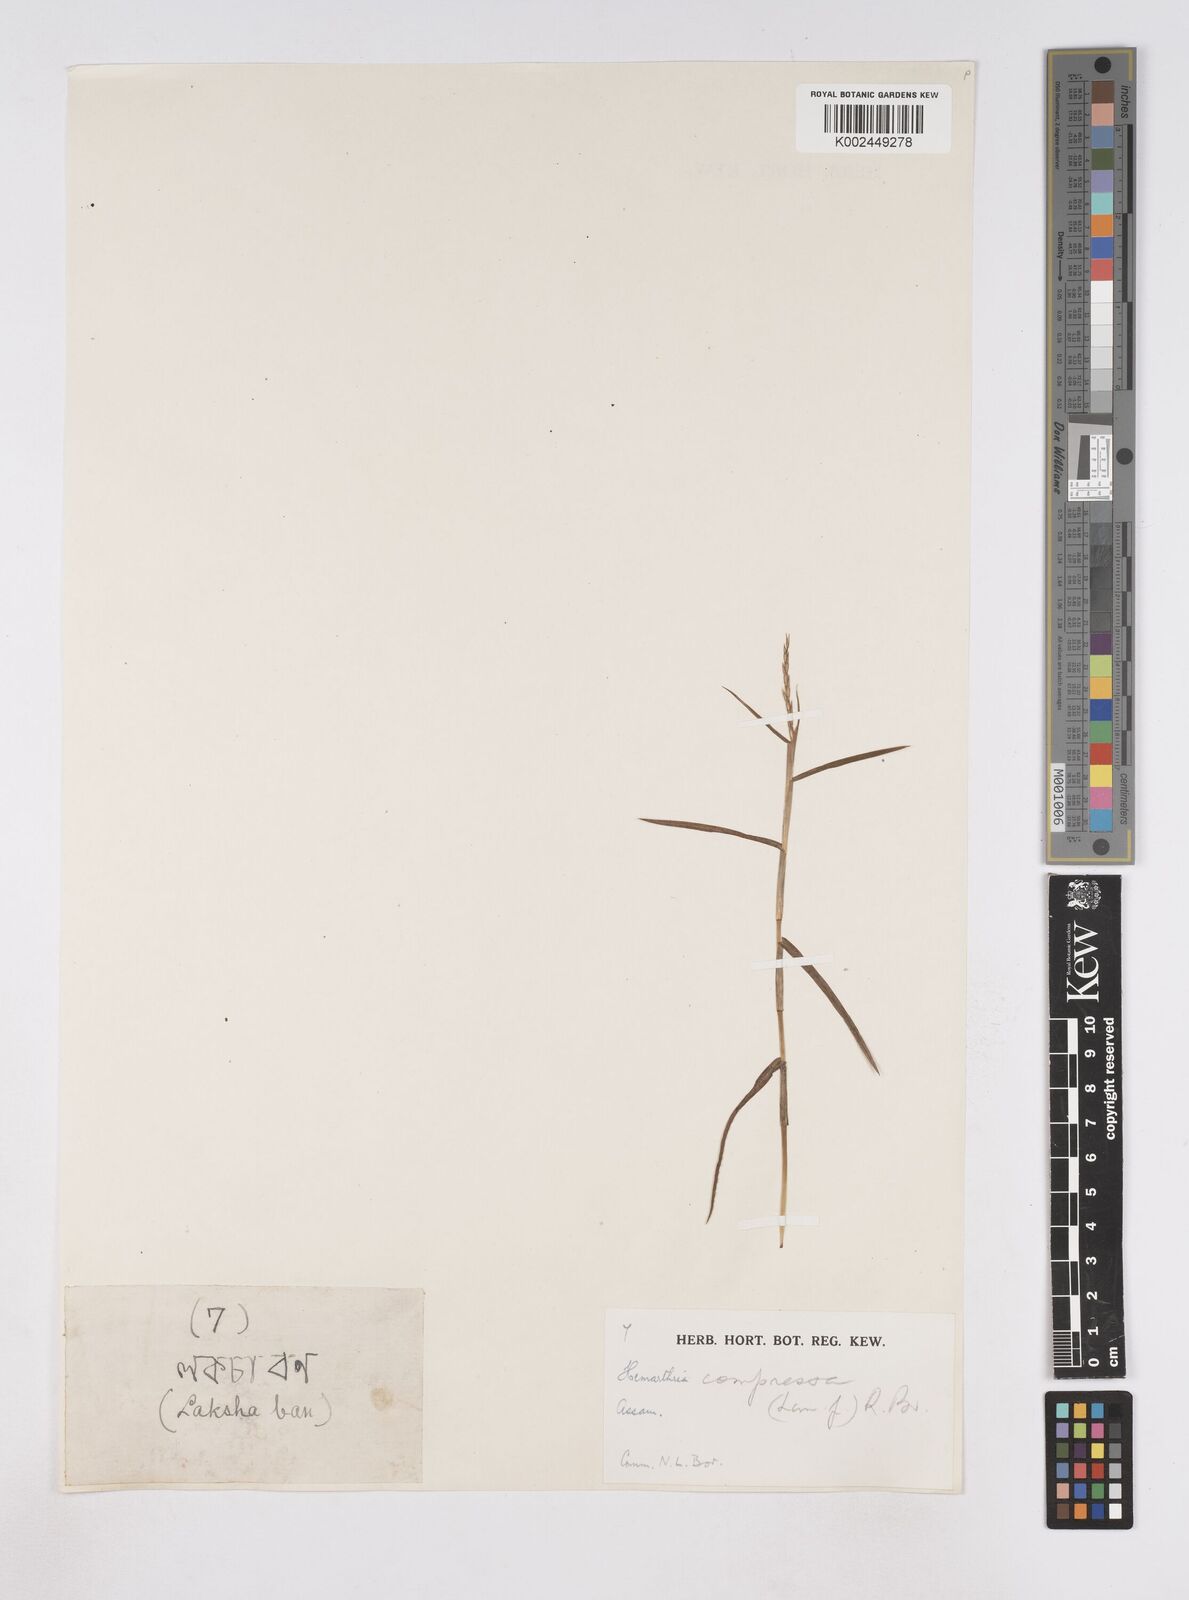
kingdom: Plantae
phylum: Tracheophyta
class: Liliopsida
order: Poales
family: Poaceae
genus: Hemarthria
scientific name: Hemarthria compressa
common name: Whip grass
